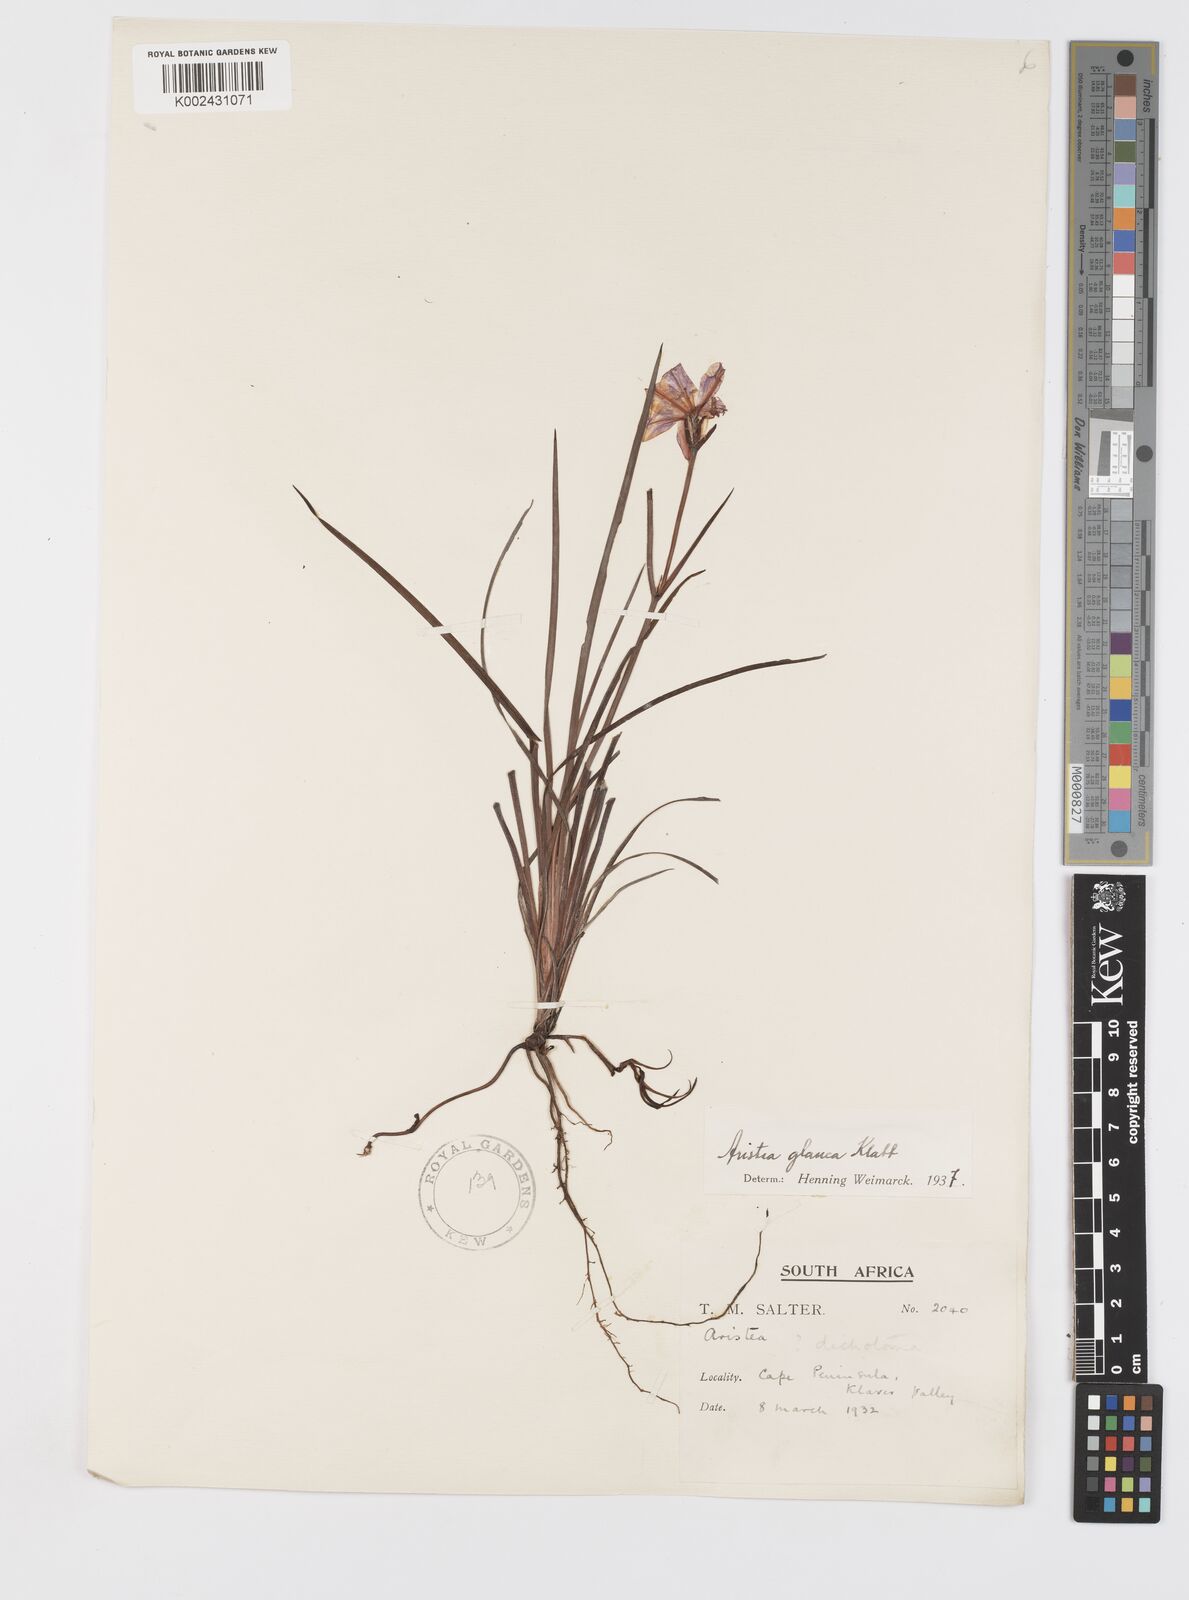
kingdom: Plantae
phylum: Tracheophyta
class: Liliopsida
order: Asparagales
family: Iridaceae
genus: Aristea
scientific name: Aristea glauca
